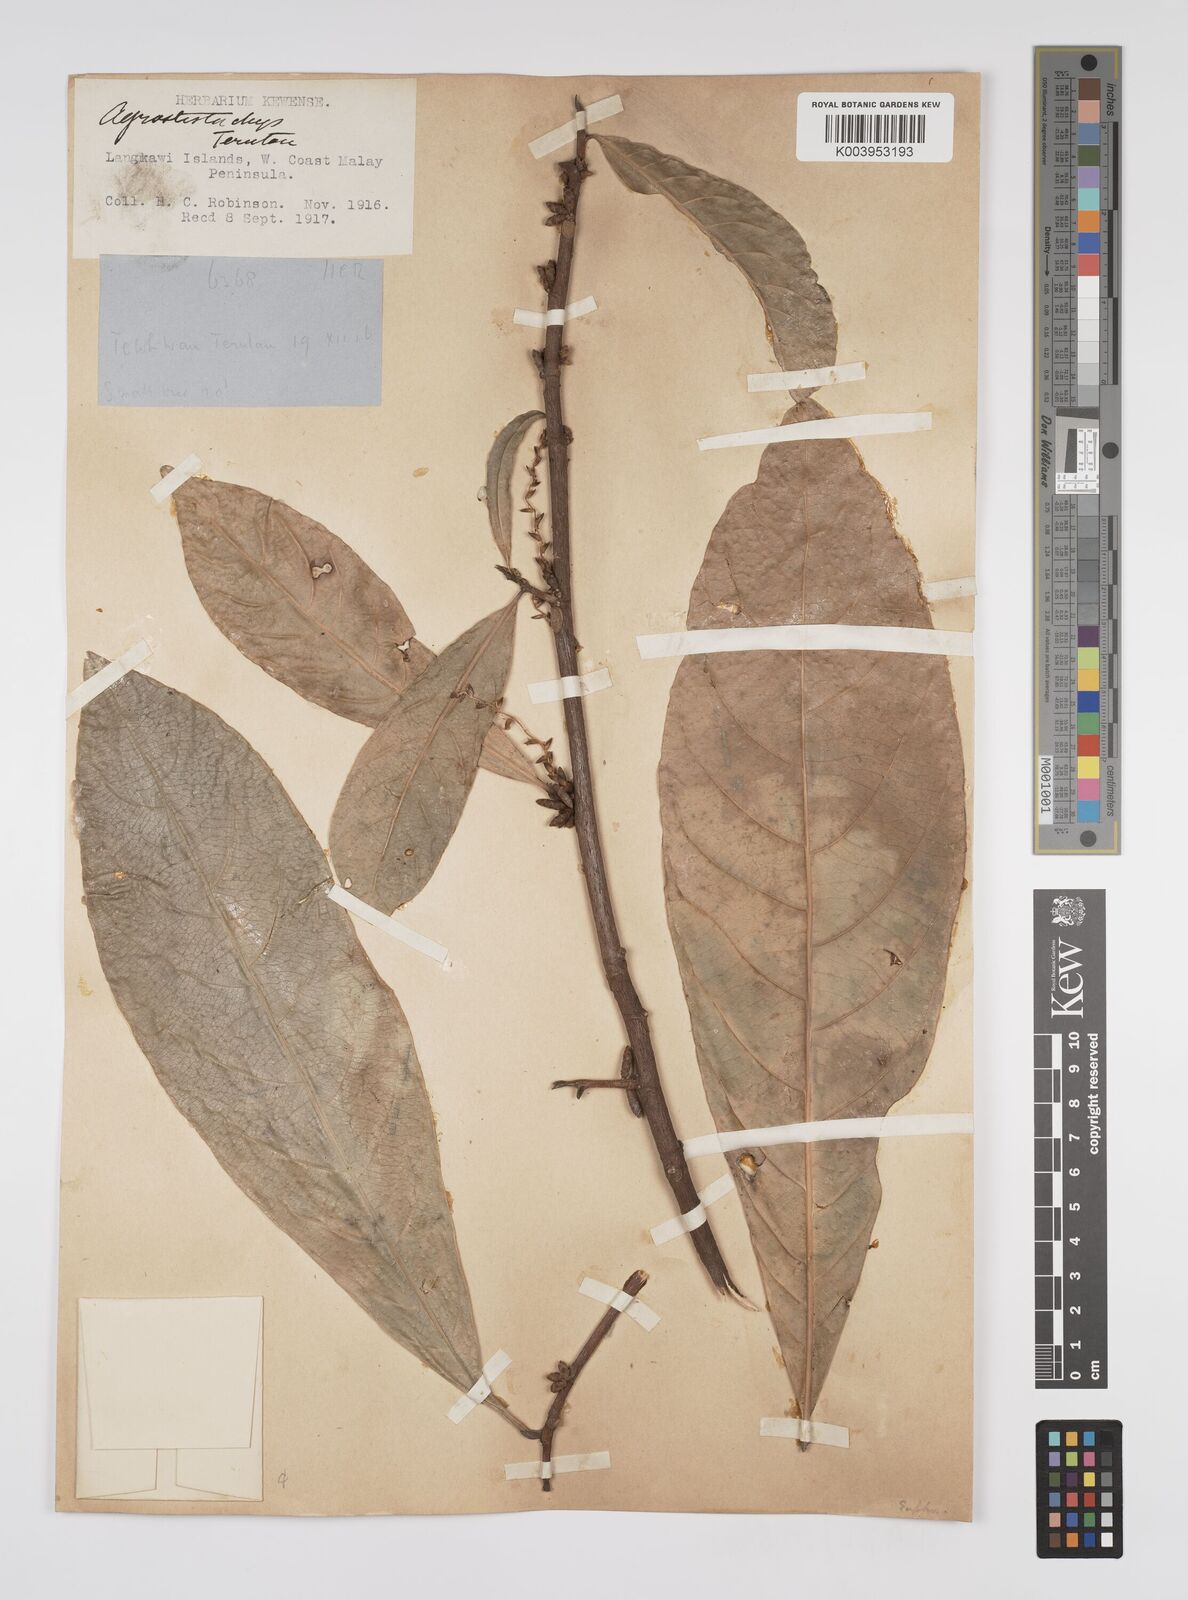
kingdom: Plantae
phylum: Tracheophyta
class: Magnoliopsida
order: Malpighiales
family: Euphorbiaceae
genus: Agrostistachys
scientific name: Agrostistachys gaudichaudii
